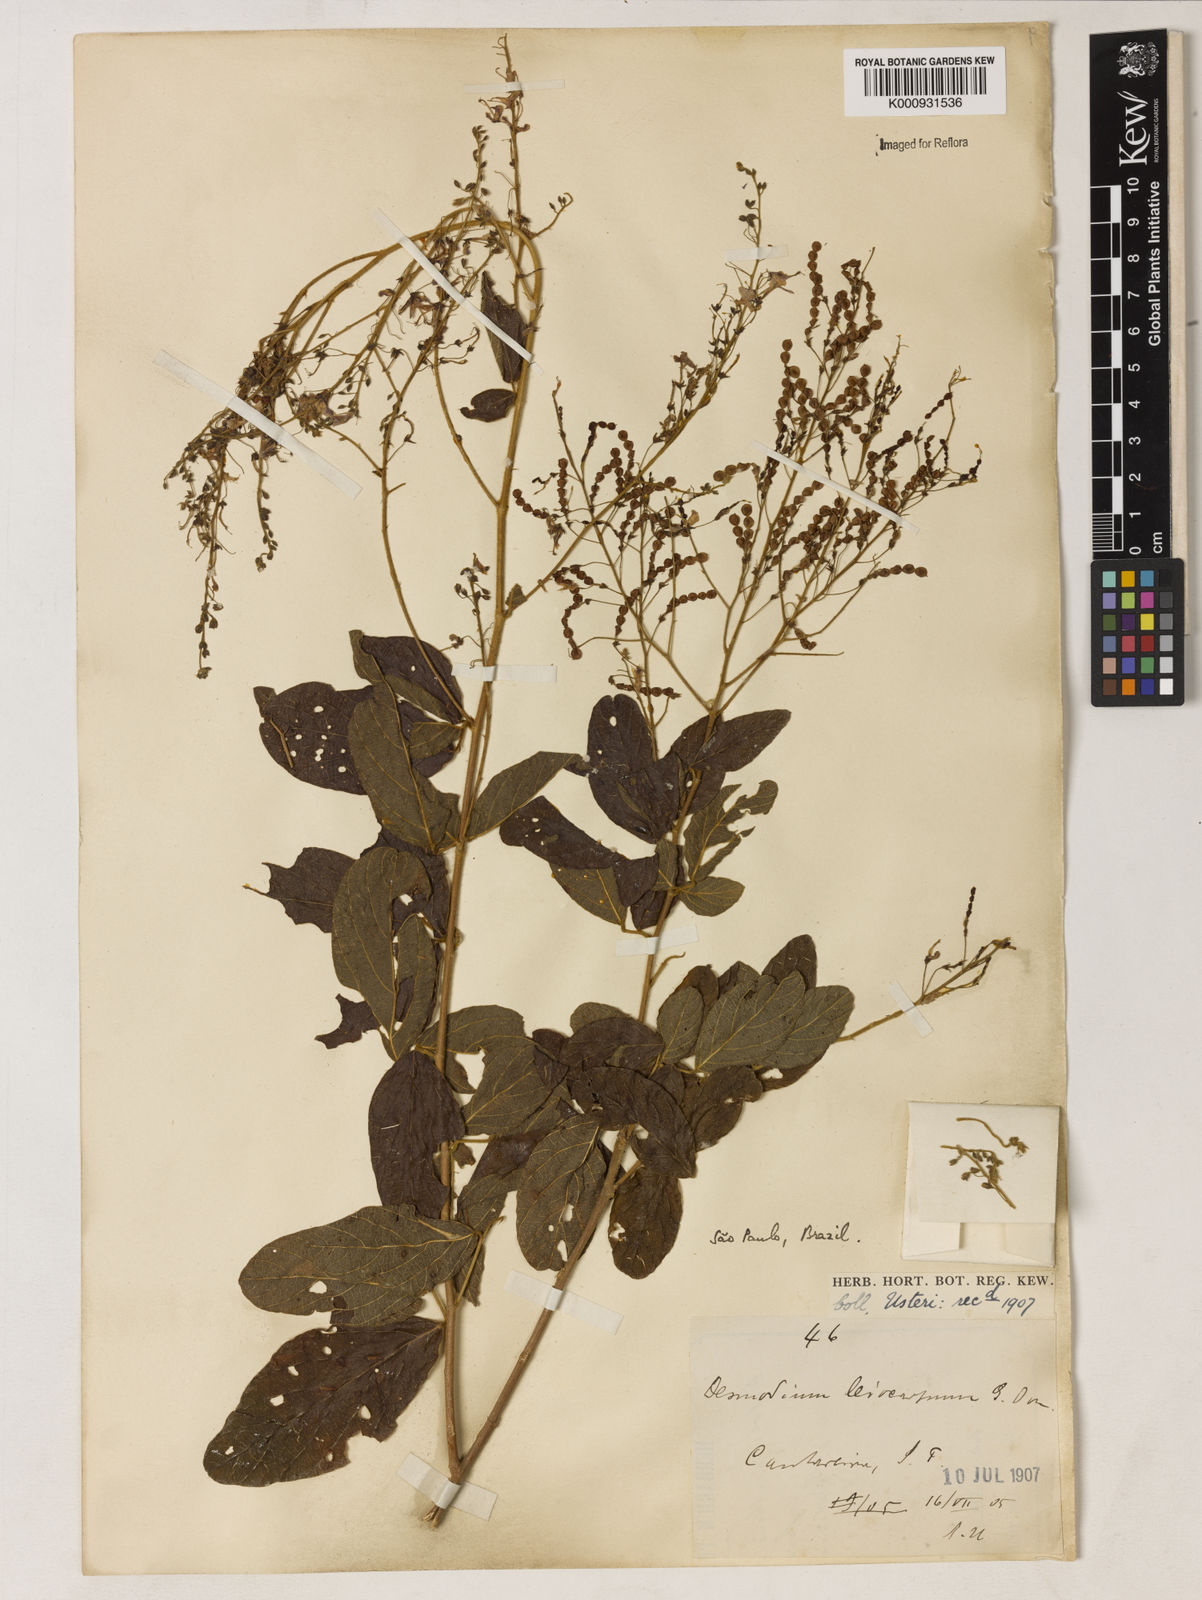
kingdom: Plantae
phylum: Tracheophyta
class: Magnoliopsida
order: Fabales
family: Fabaceae
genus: Desmodium
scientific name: Desmodium subsecundum
